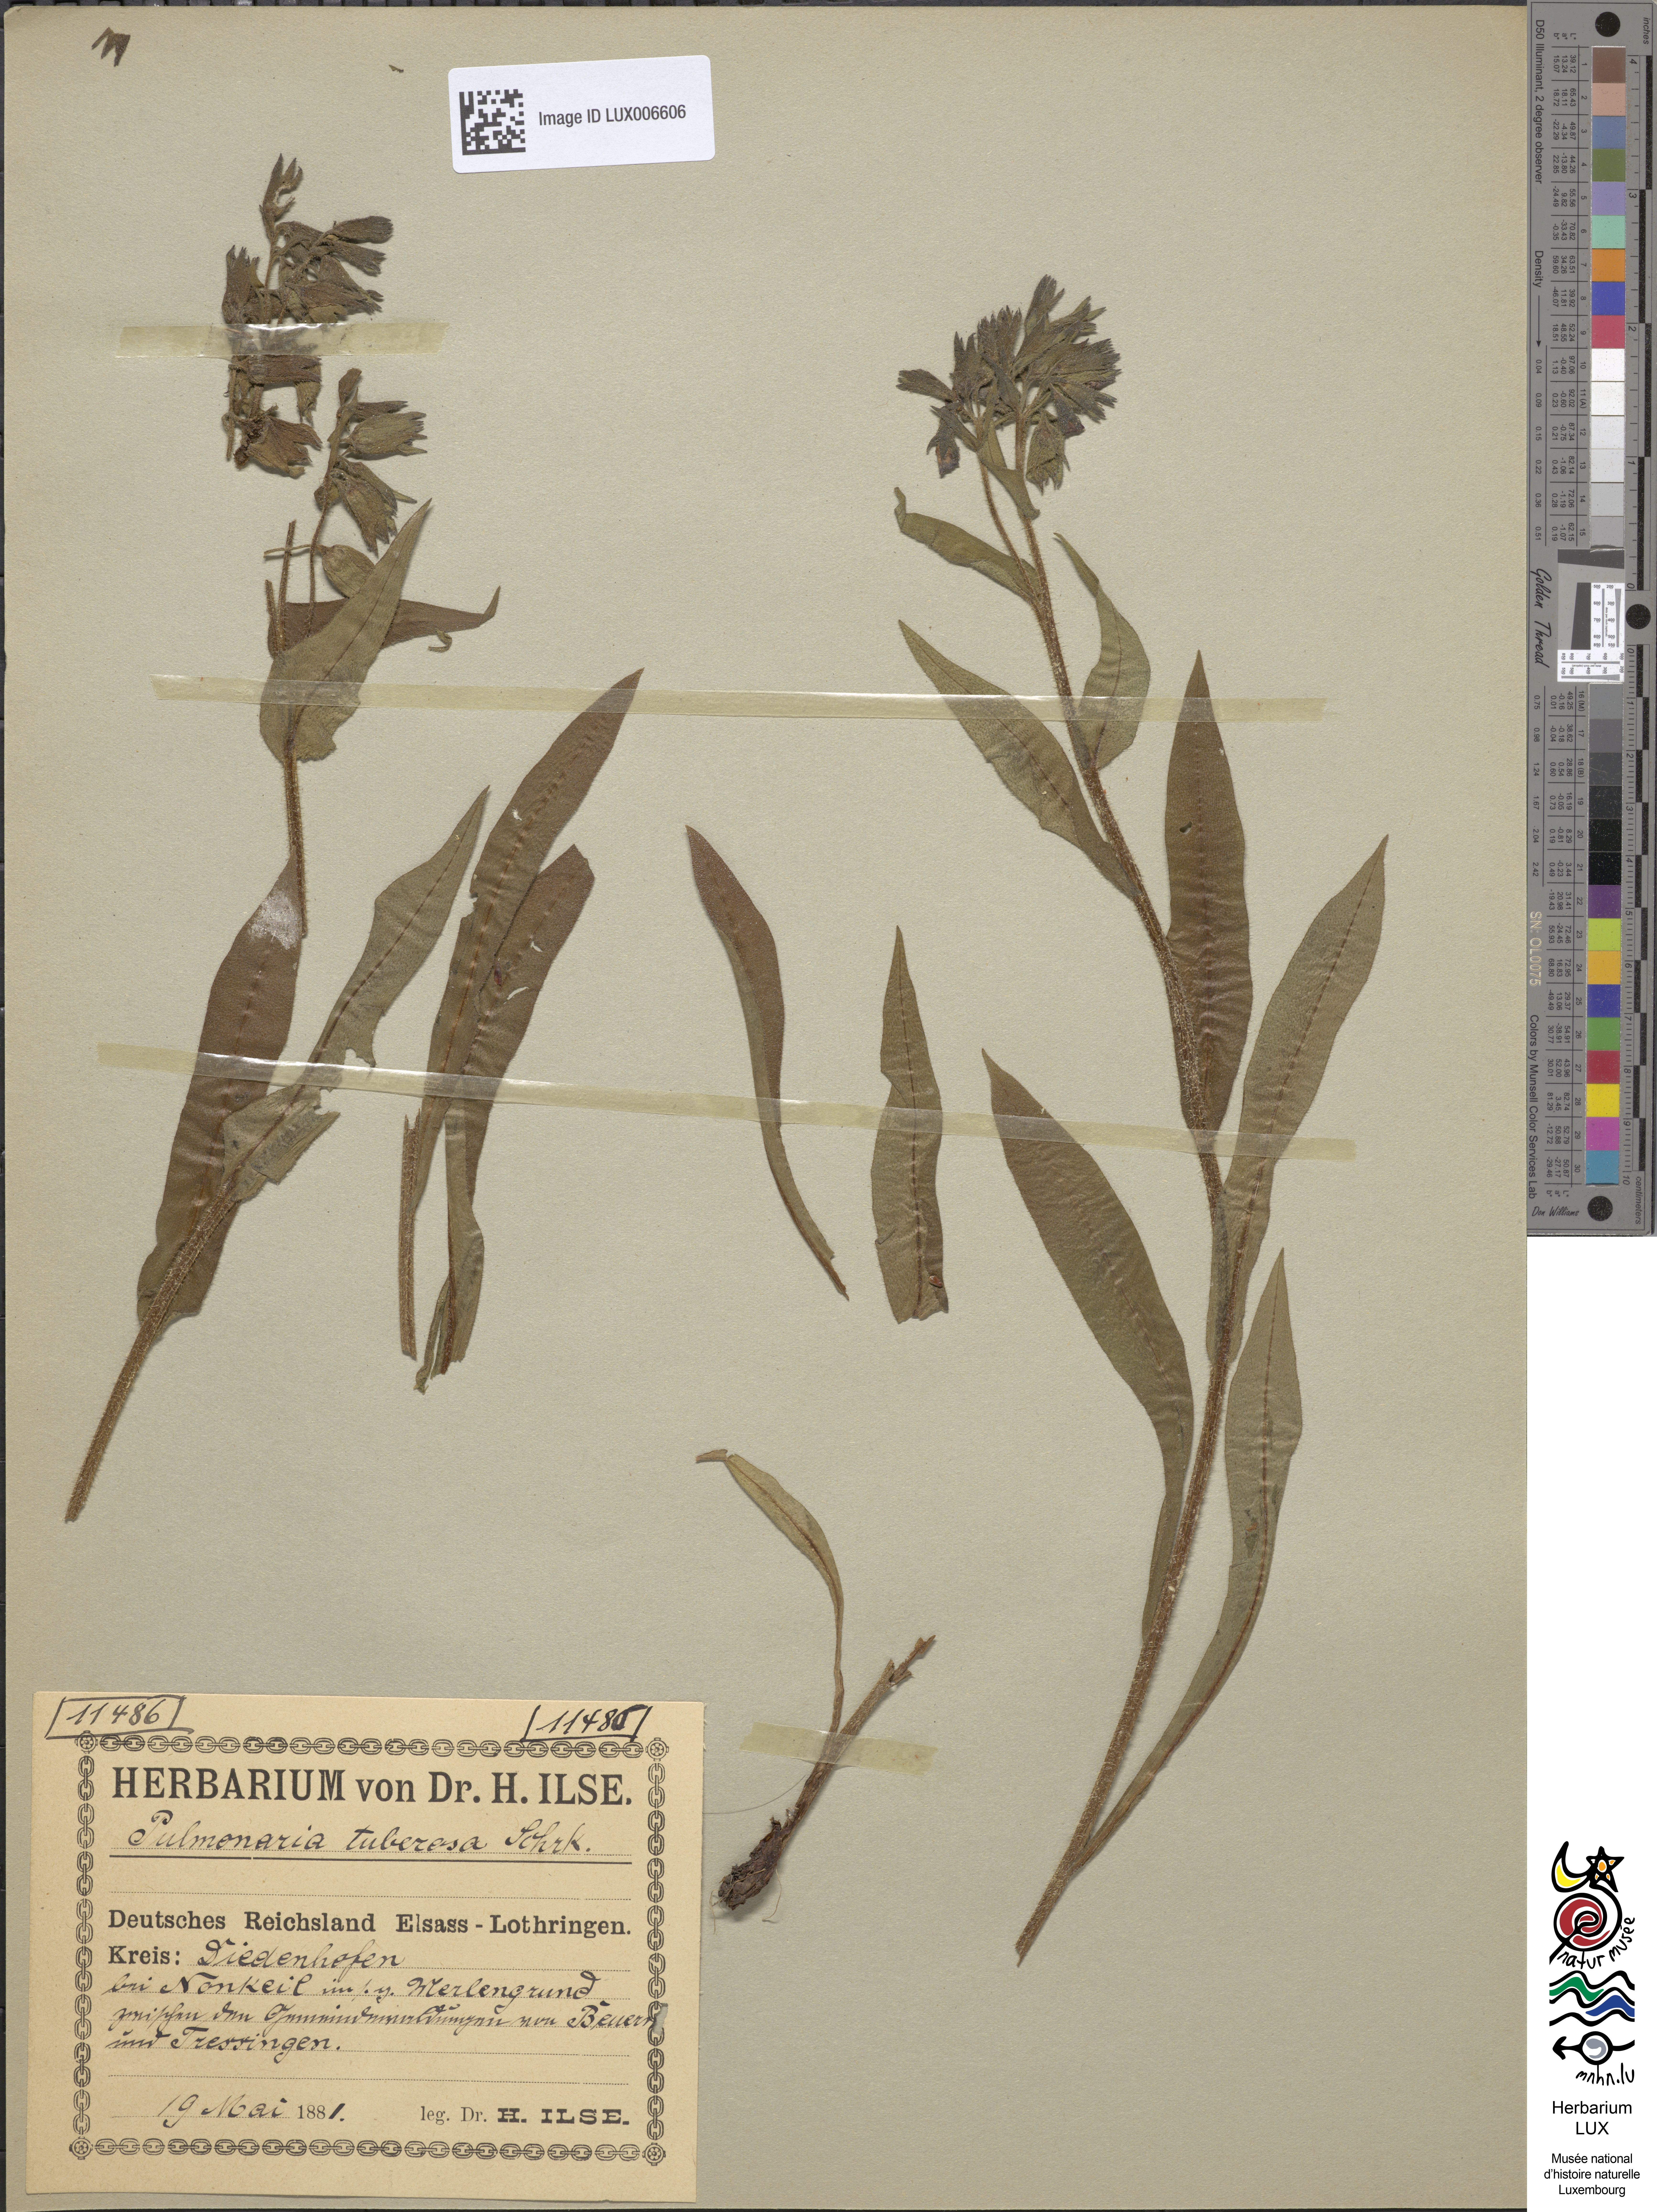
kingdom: Plantae
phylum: Tracheophyta
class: Magnoliopsida
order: Boraginales
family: Boraginaceae
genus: Pulmonaria
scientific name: Pulmonaria montana
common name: Mountain lungwort
